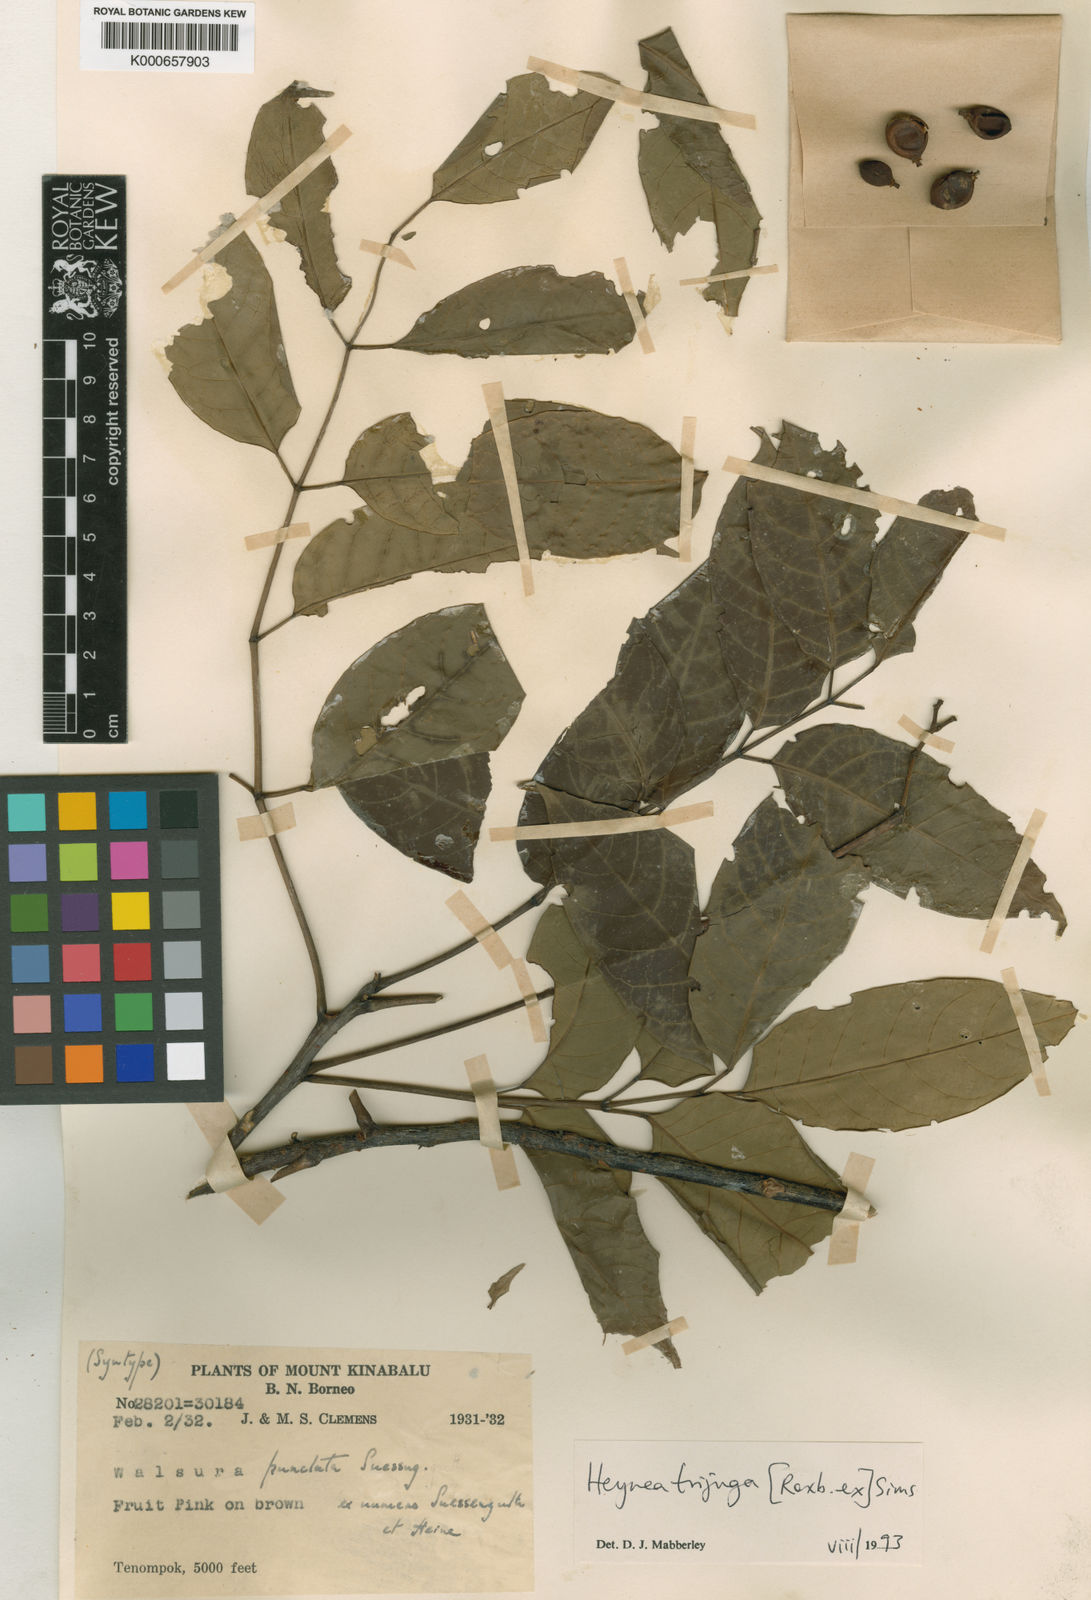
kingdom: Plantae
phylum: Tracheophyta
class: Magnoliopsida
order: Sapindales
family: Meliaceae
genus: Heynea
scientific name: Heynea trijuga
